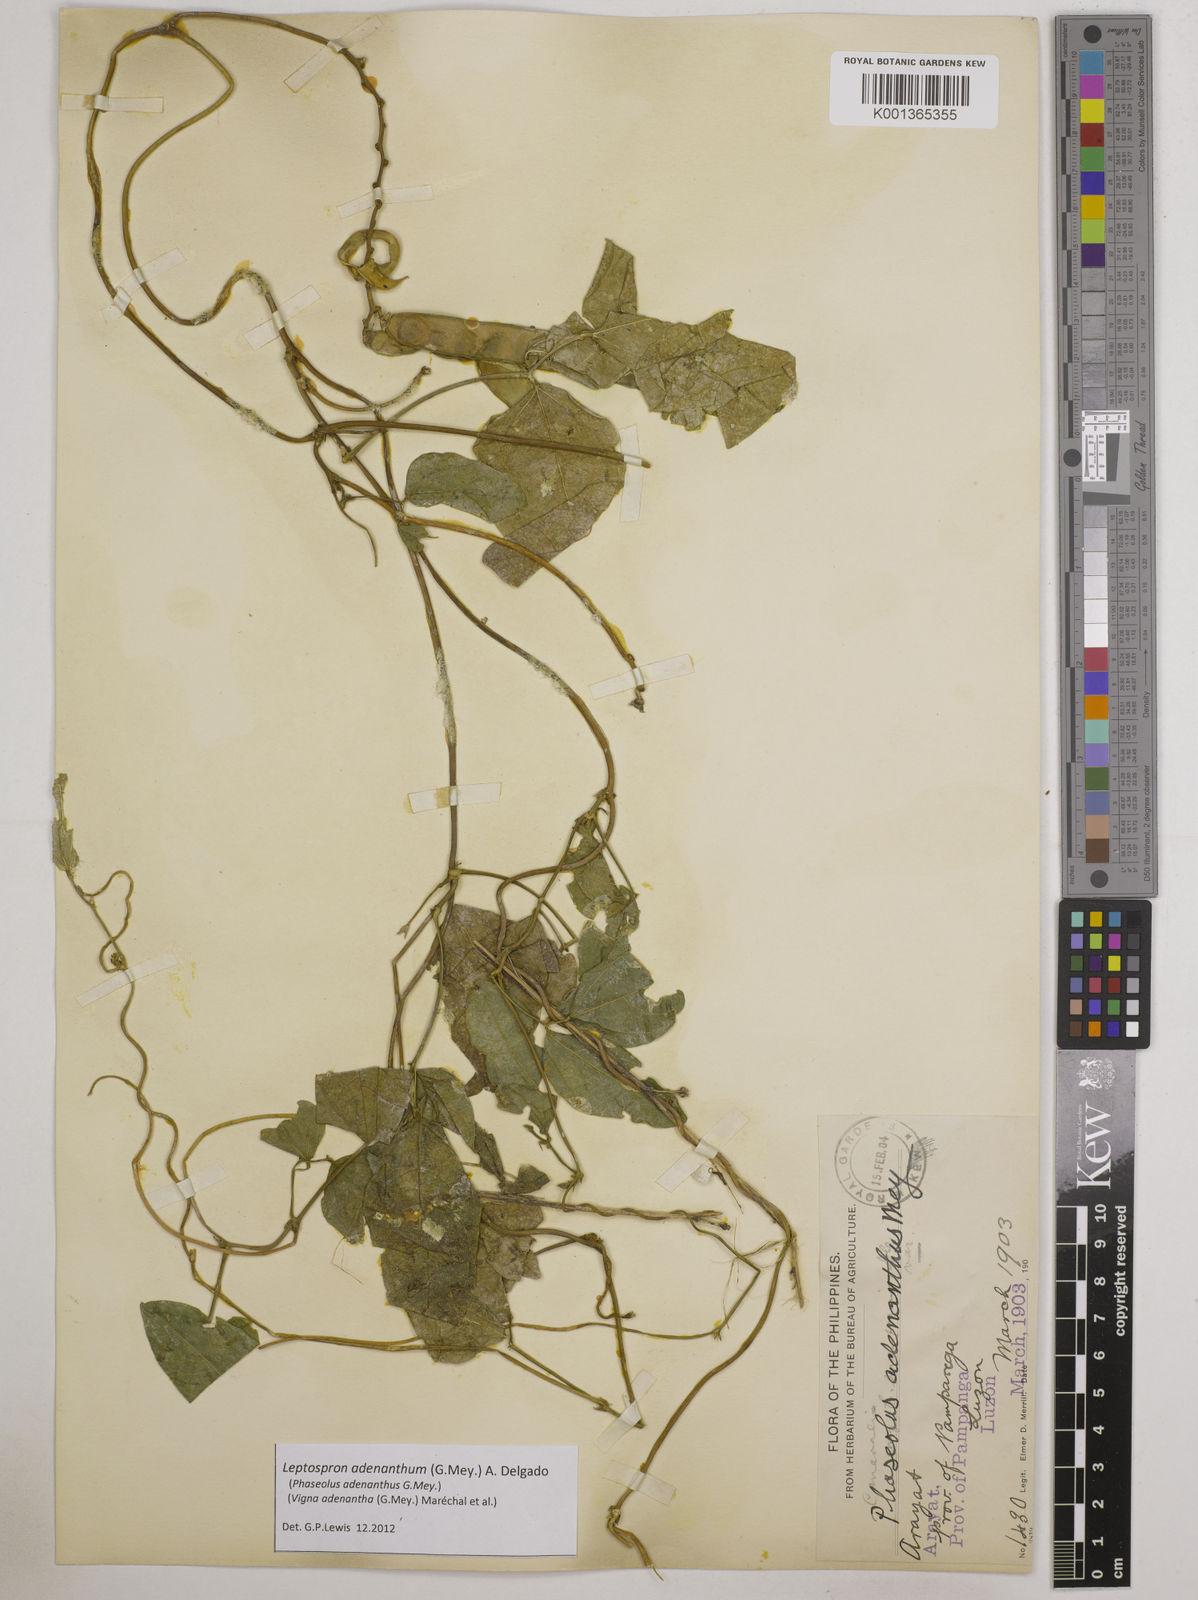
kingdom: Plantae
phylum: Tracheophyta
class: Magnoliopsida
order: Fabales
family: Fabaceae
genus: Leptospron
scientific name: Leptospron adenanthum
